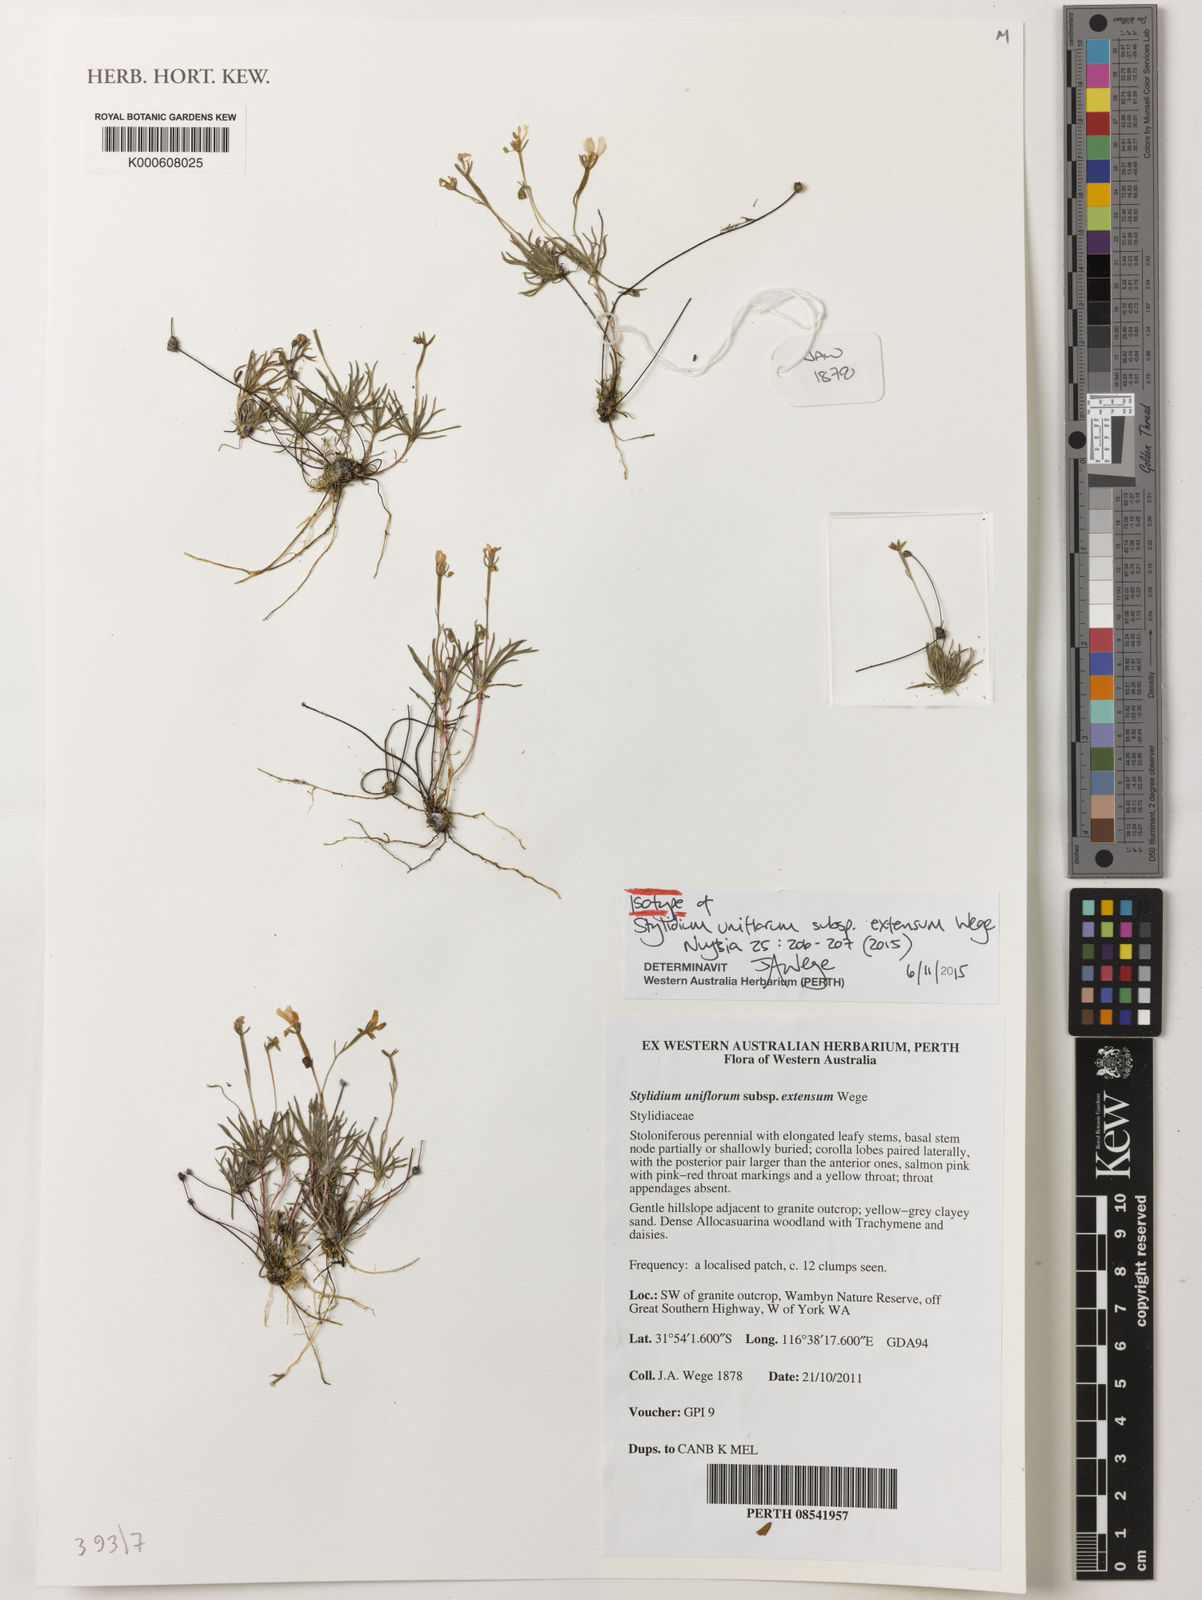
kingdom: Plantae
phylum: Tracheophyta
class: Magnoliopsida
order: Asterales
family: Stylidiaceae
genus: Stylidium
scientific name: Stylidium uniflorum
